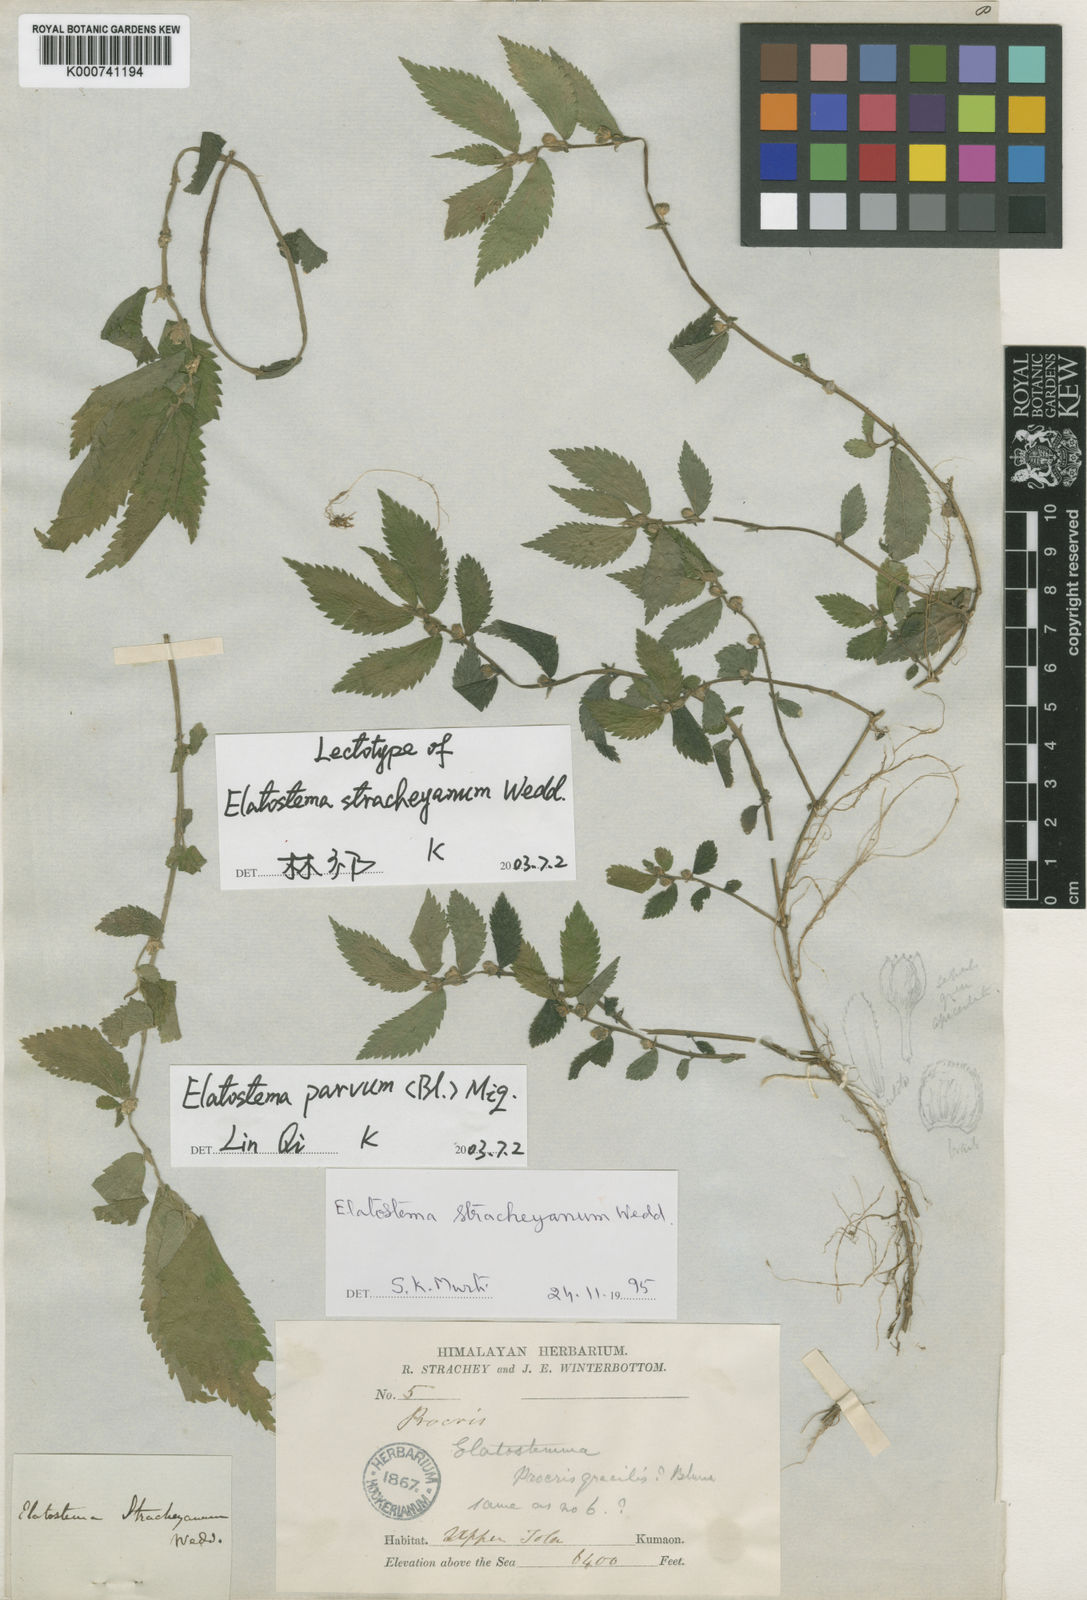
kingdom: Plantae
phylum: Tracheophyta
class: Magnoliopsida
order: Rosales
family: Urticaceae
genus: Elatostema
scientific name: Elatostema parvum
